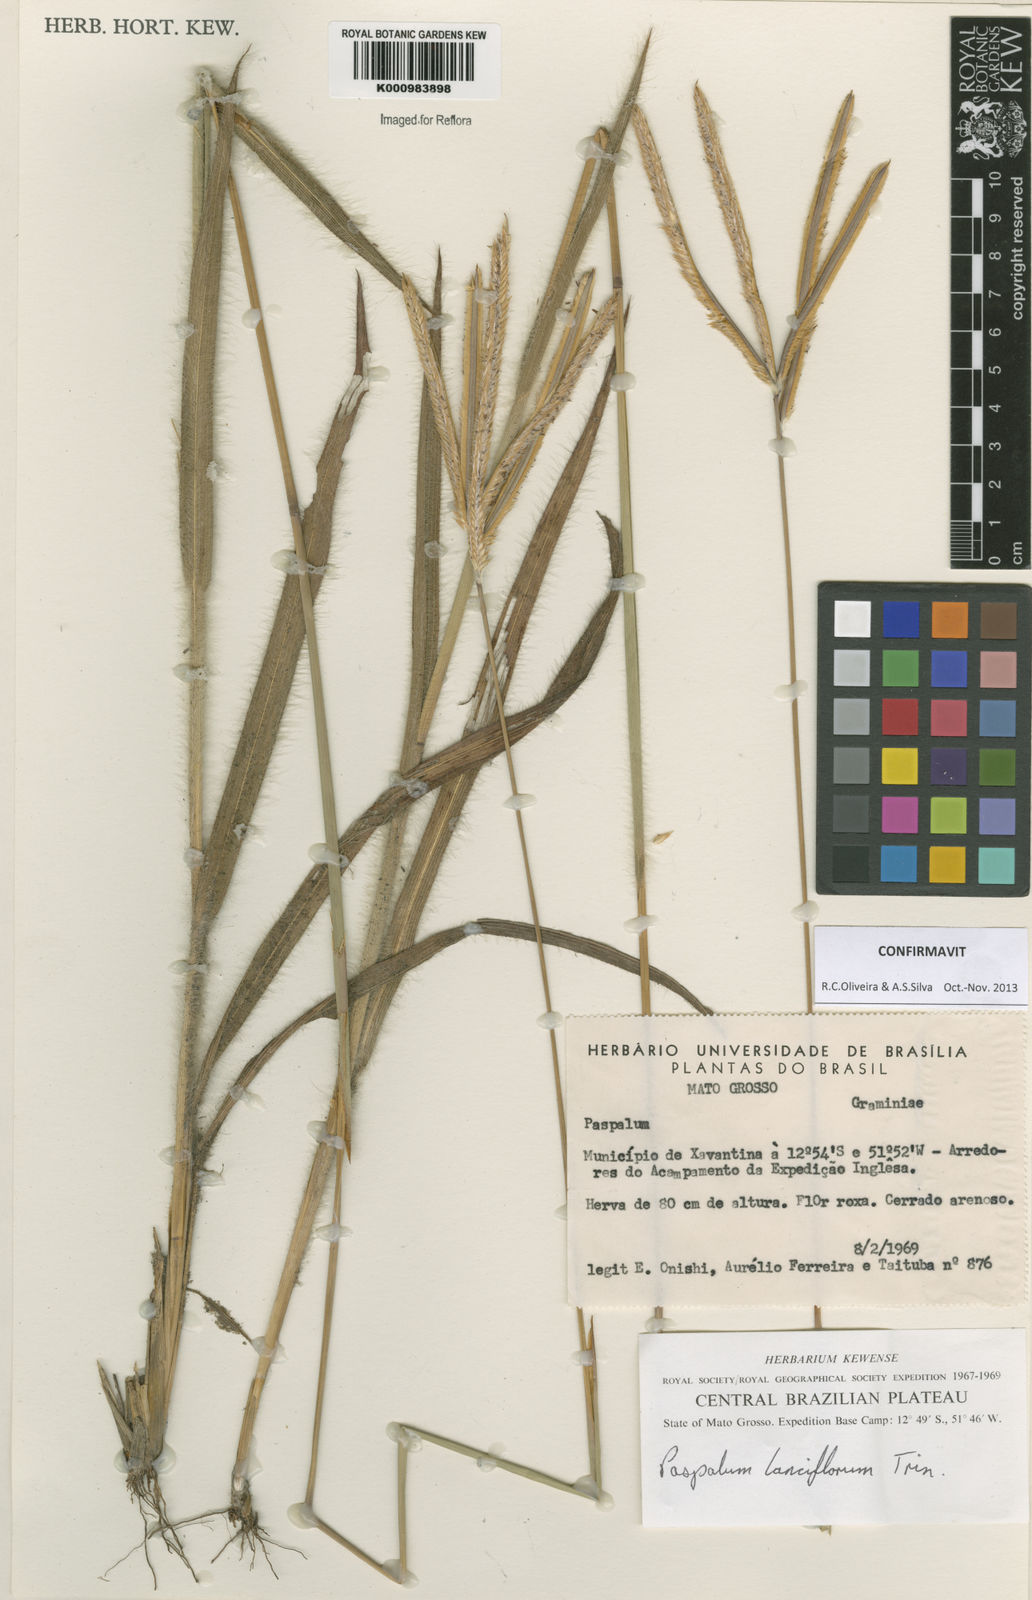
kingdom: Plantae
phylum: Tracheophyta
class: Liliopsida
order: Poales
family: Poaceae
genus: Paspalum
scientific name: Paspalum
